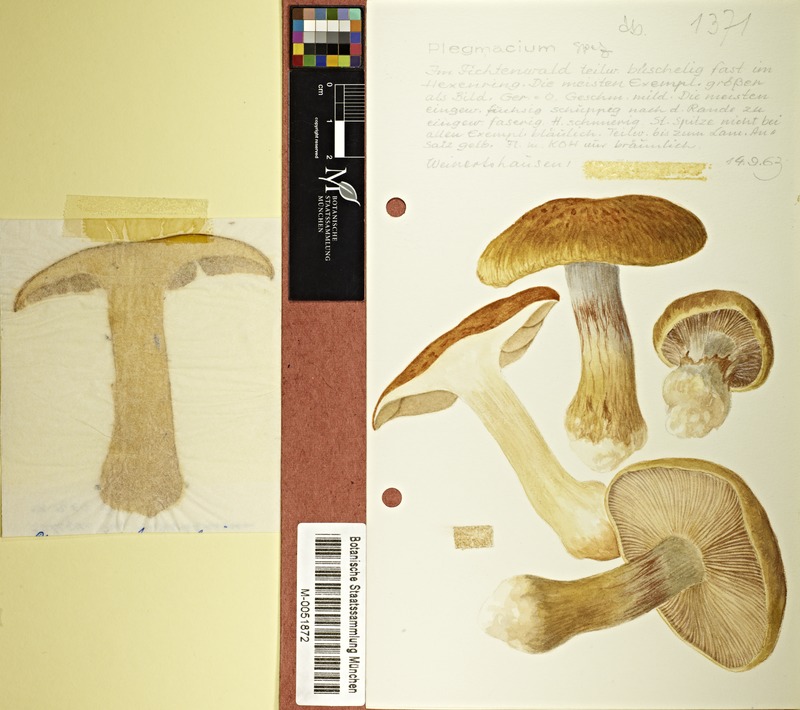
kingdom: Fungi
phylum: Basidiomycota
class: Agaricomycetes
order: Agaricales
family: Cortinariaceae
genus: Cortinarius
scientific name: Cortinarius
